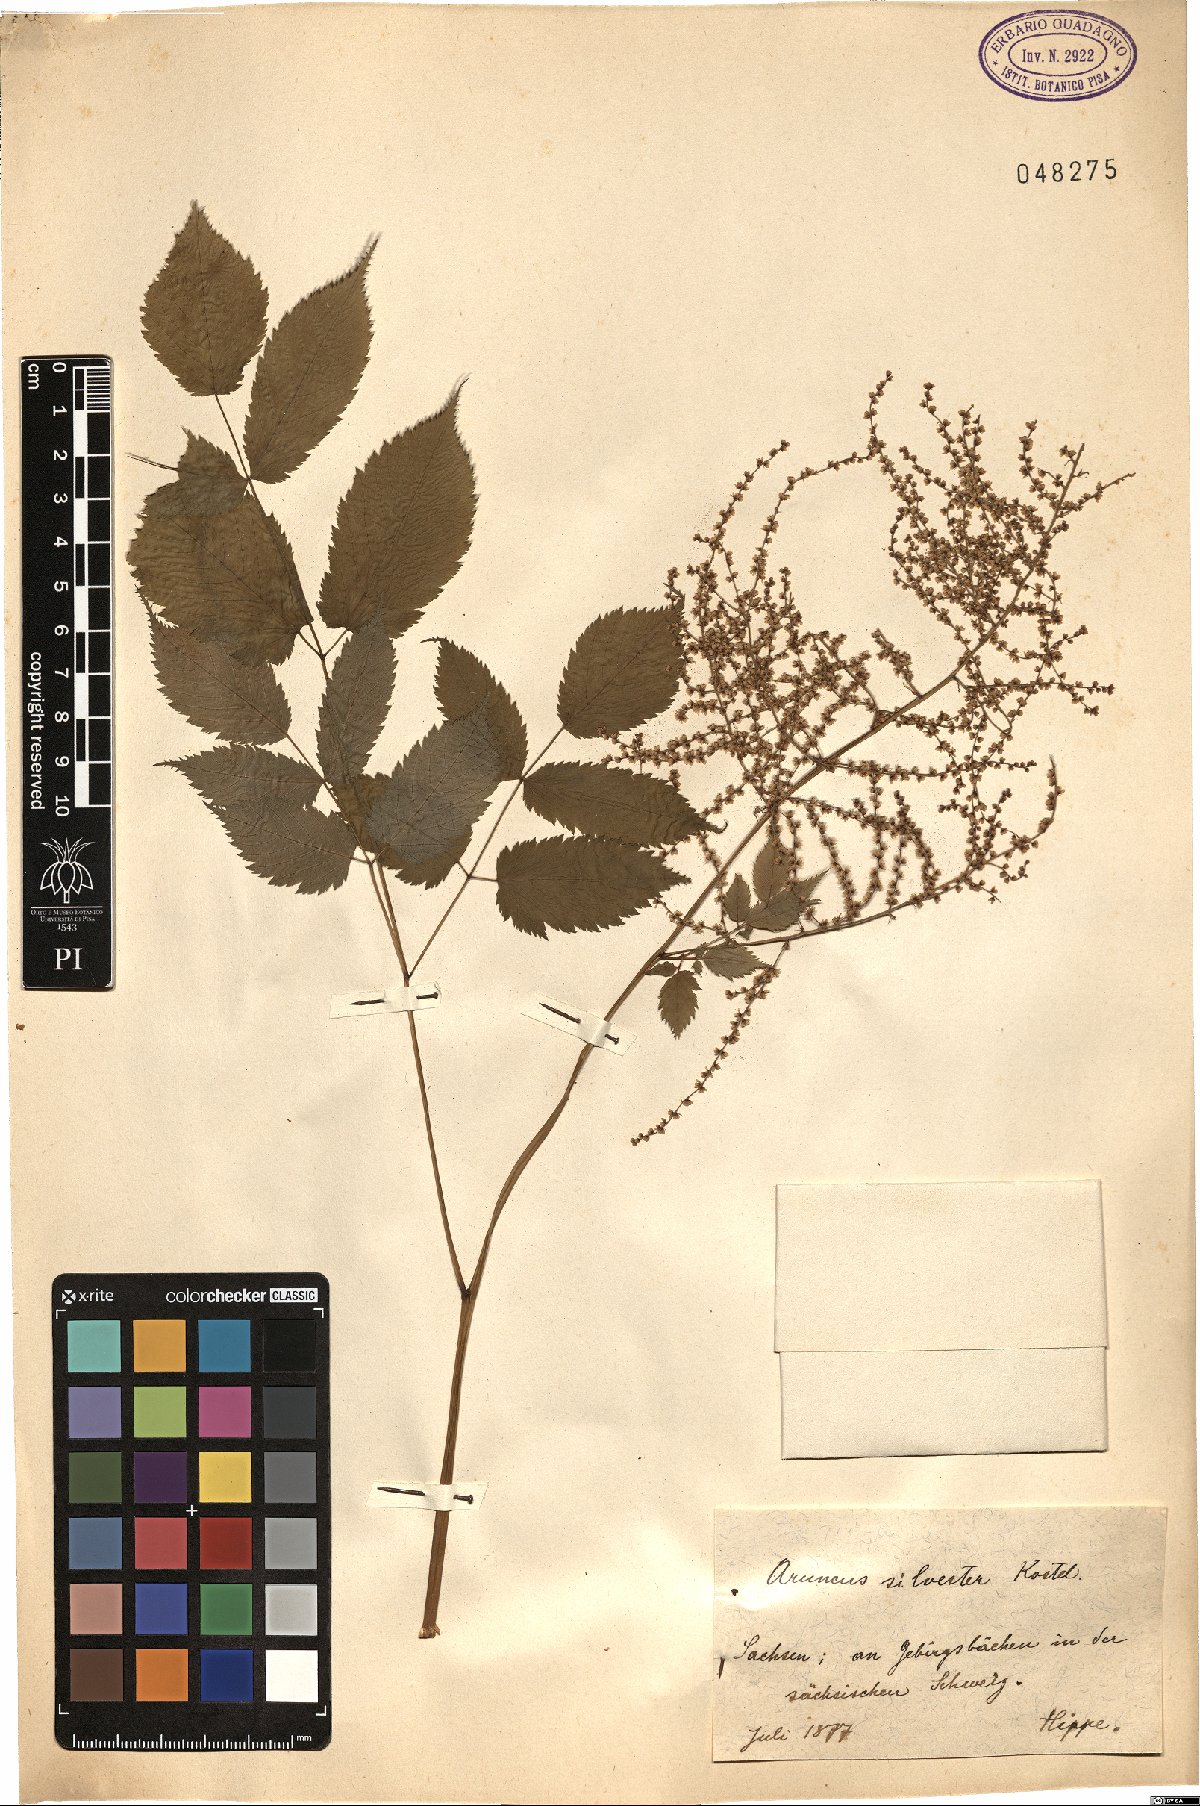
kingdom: Plantae
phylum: Tracheophyta
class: Magnoliopsida
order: Rosales
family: Rosaceae
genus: Aruncus
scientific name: Aruncus sylvester
